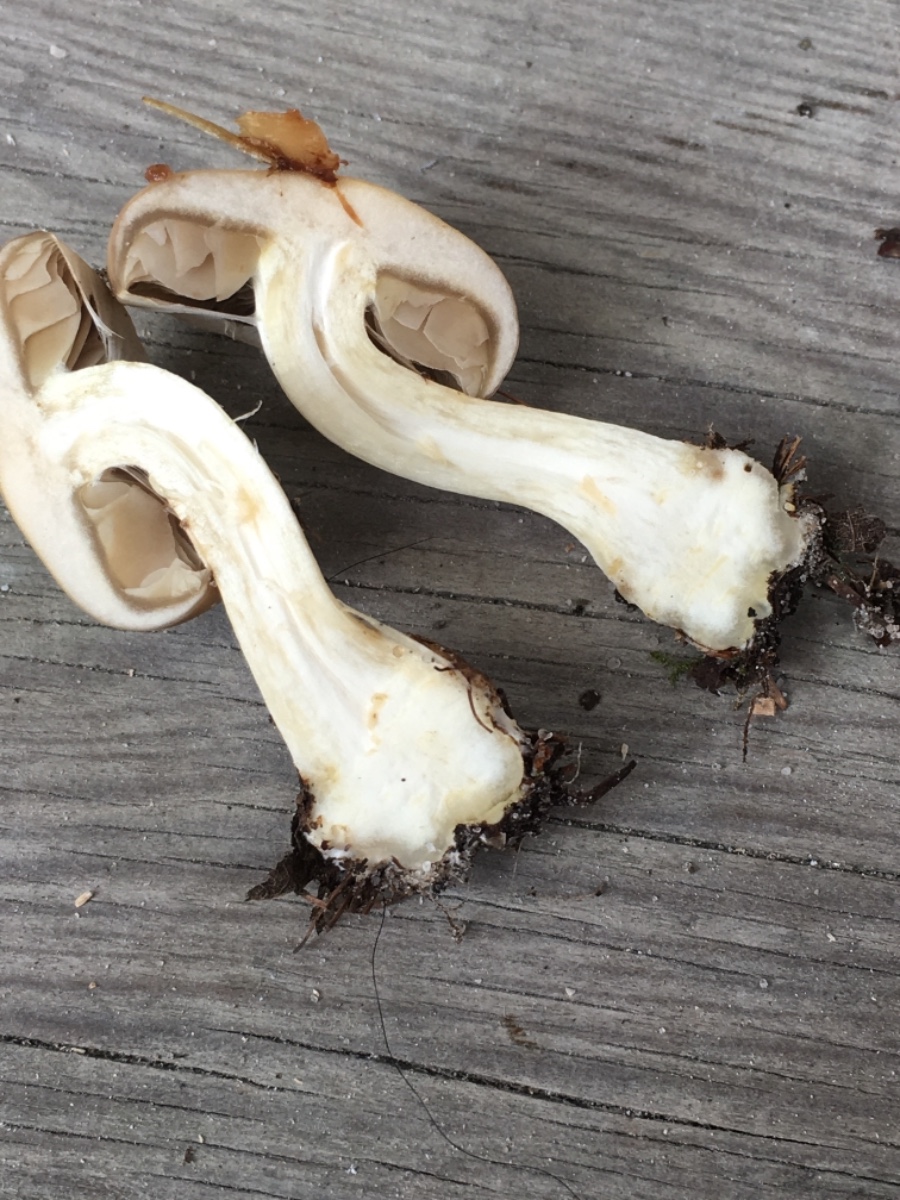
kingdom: Fungi
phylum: Basidiomycota
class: Agaricomycetes
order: Agaricales
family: Strophariaceae
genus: Agrocybe
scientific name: Agrocybe praecox
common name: tidlig agerhat
